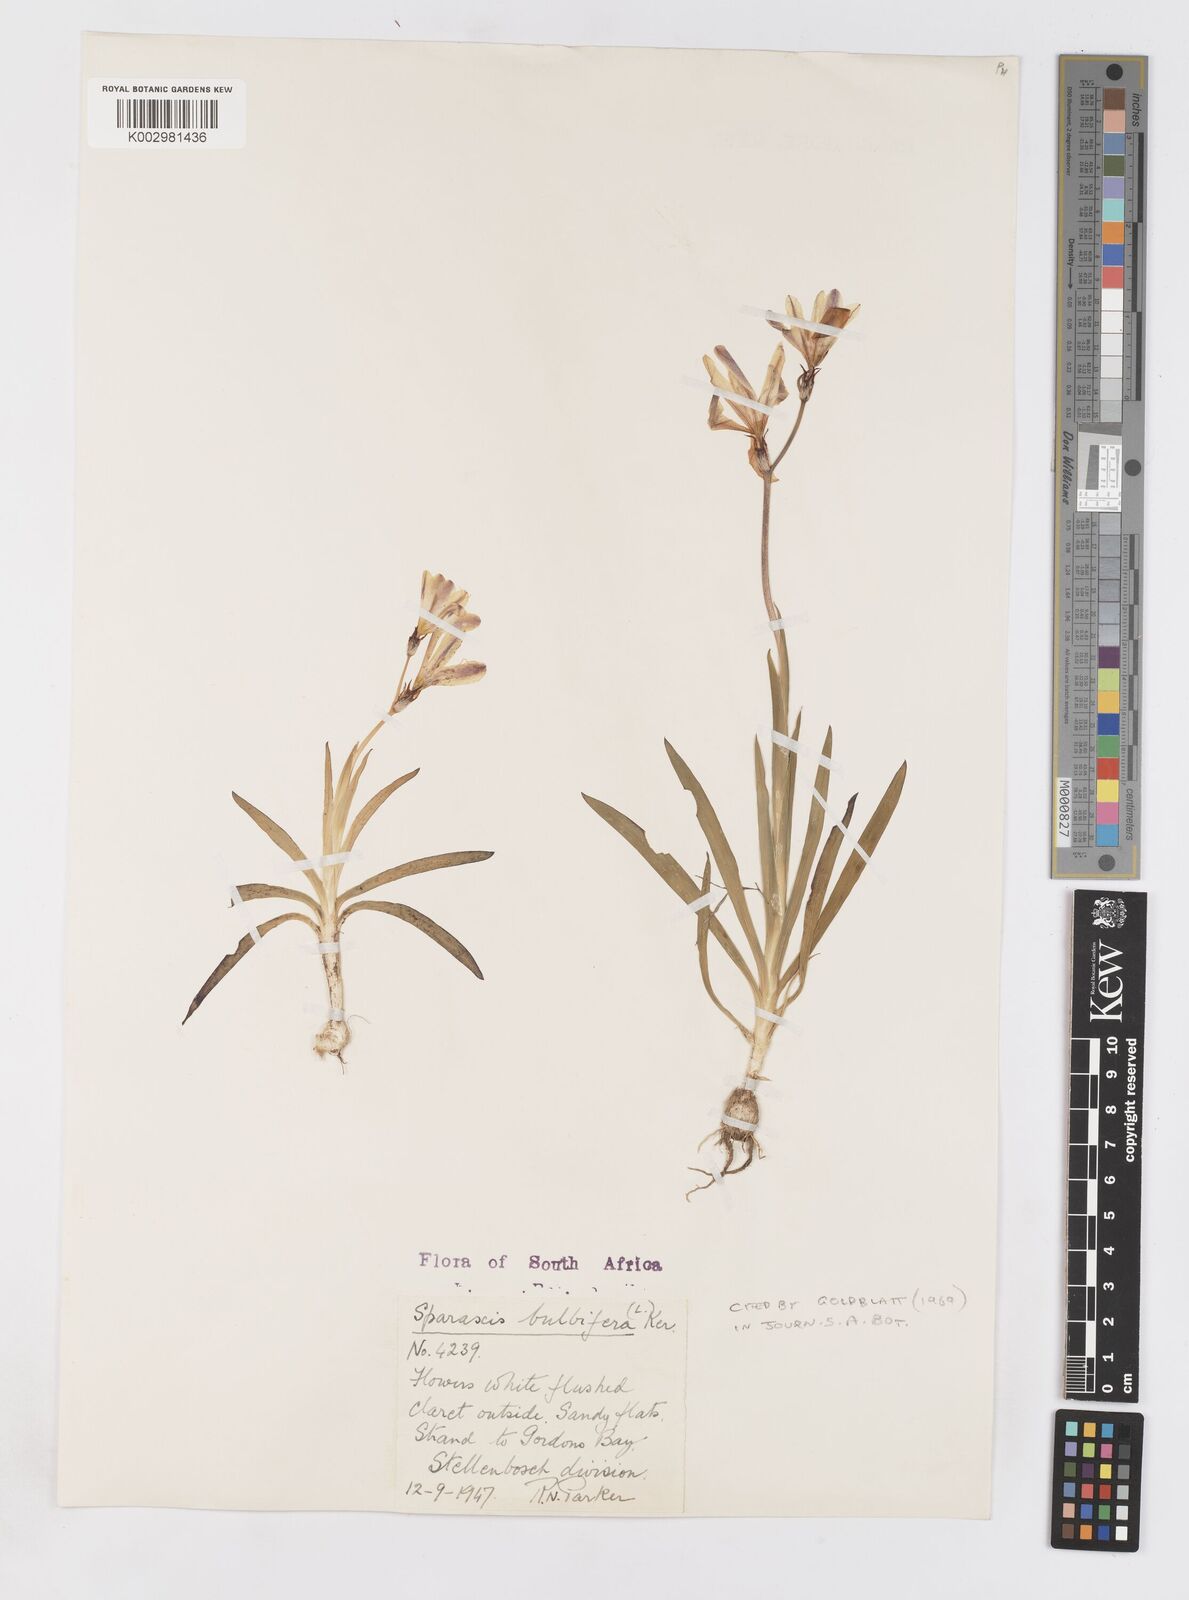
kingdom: Plantae
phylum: Tracheophyta
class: Liliopsida
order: Asparagales
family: Iridaceae
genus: Sparaxis
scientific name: Sparaxis bulbifera
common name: Harlequin-flower
